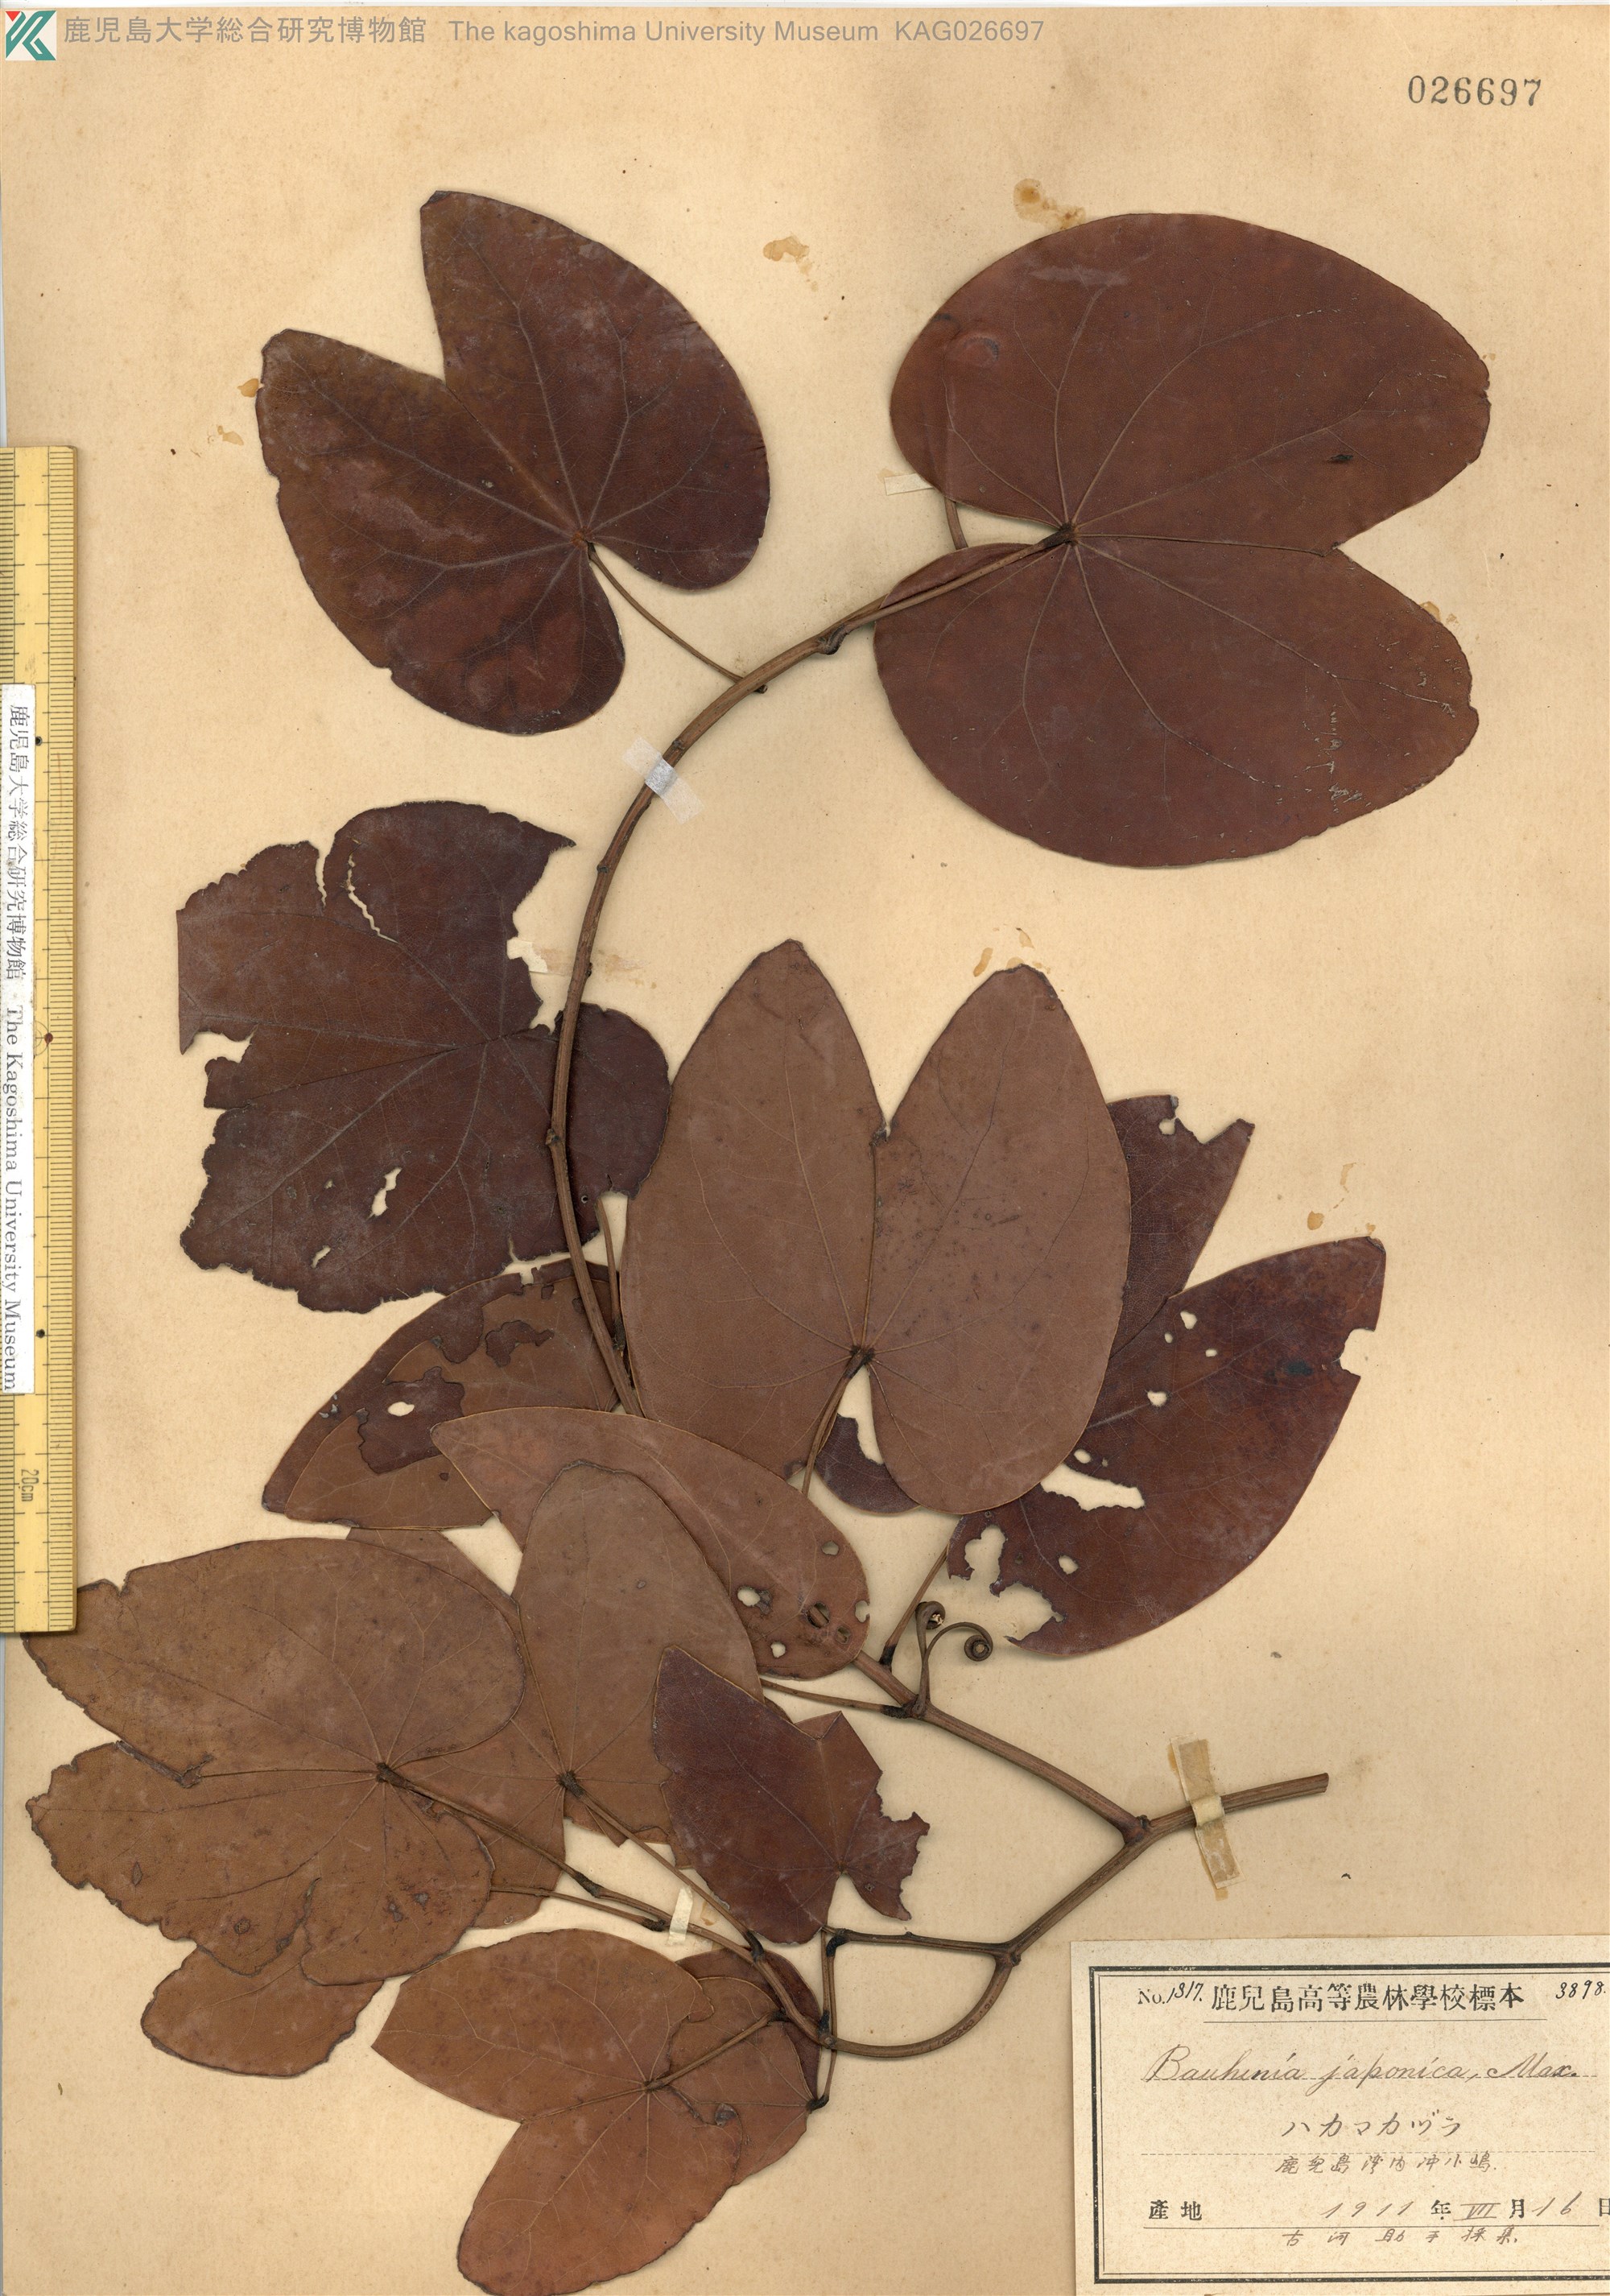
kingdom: Plantae
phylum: Tracheophyta
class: Magnoliopsida
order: Fabales
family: Fabaceae
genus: Phanera
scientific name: Phanera japonica
